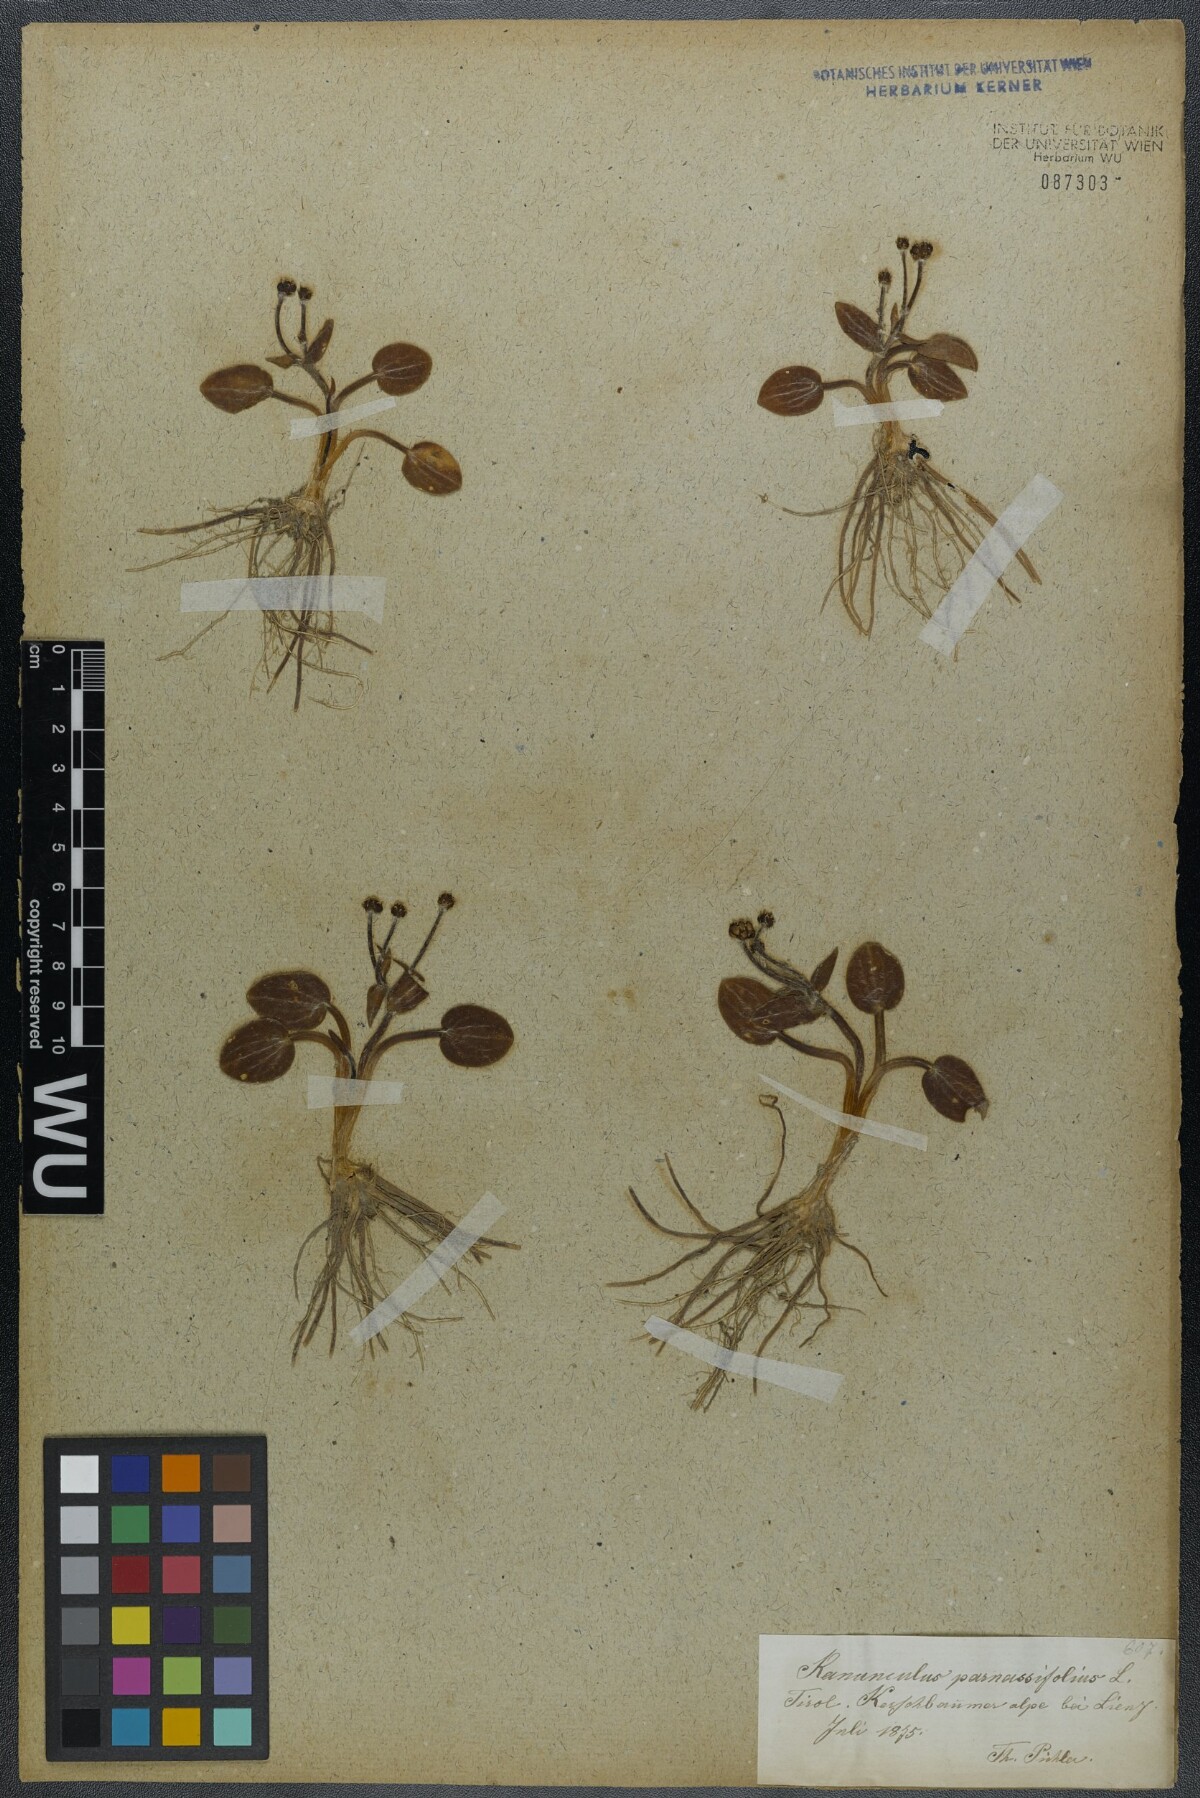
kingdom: Plantae
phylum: Tracheophyta
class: Magnoliopsida
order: Ranunculales
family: Ranunculaceae
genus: Ranunculus
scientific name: Ranunculus parnassiifolius
